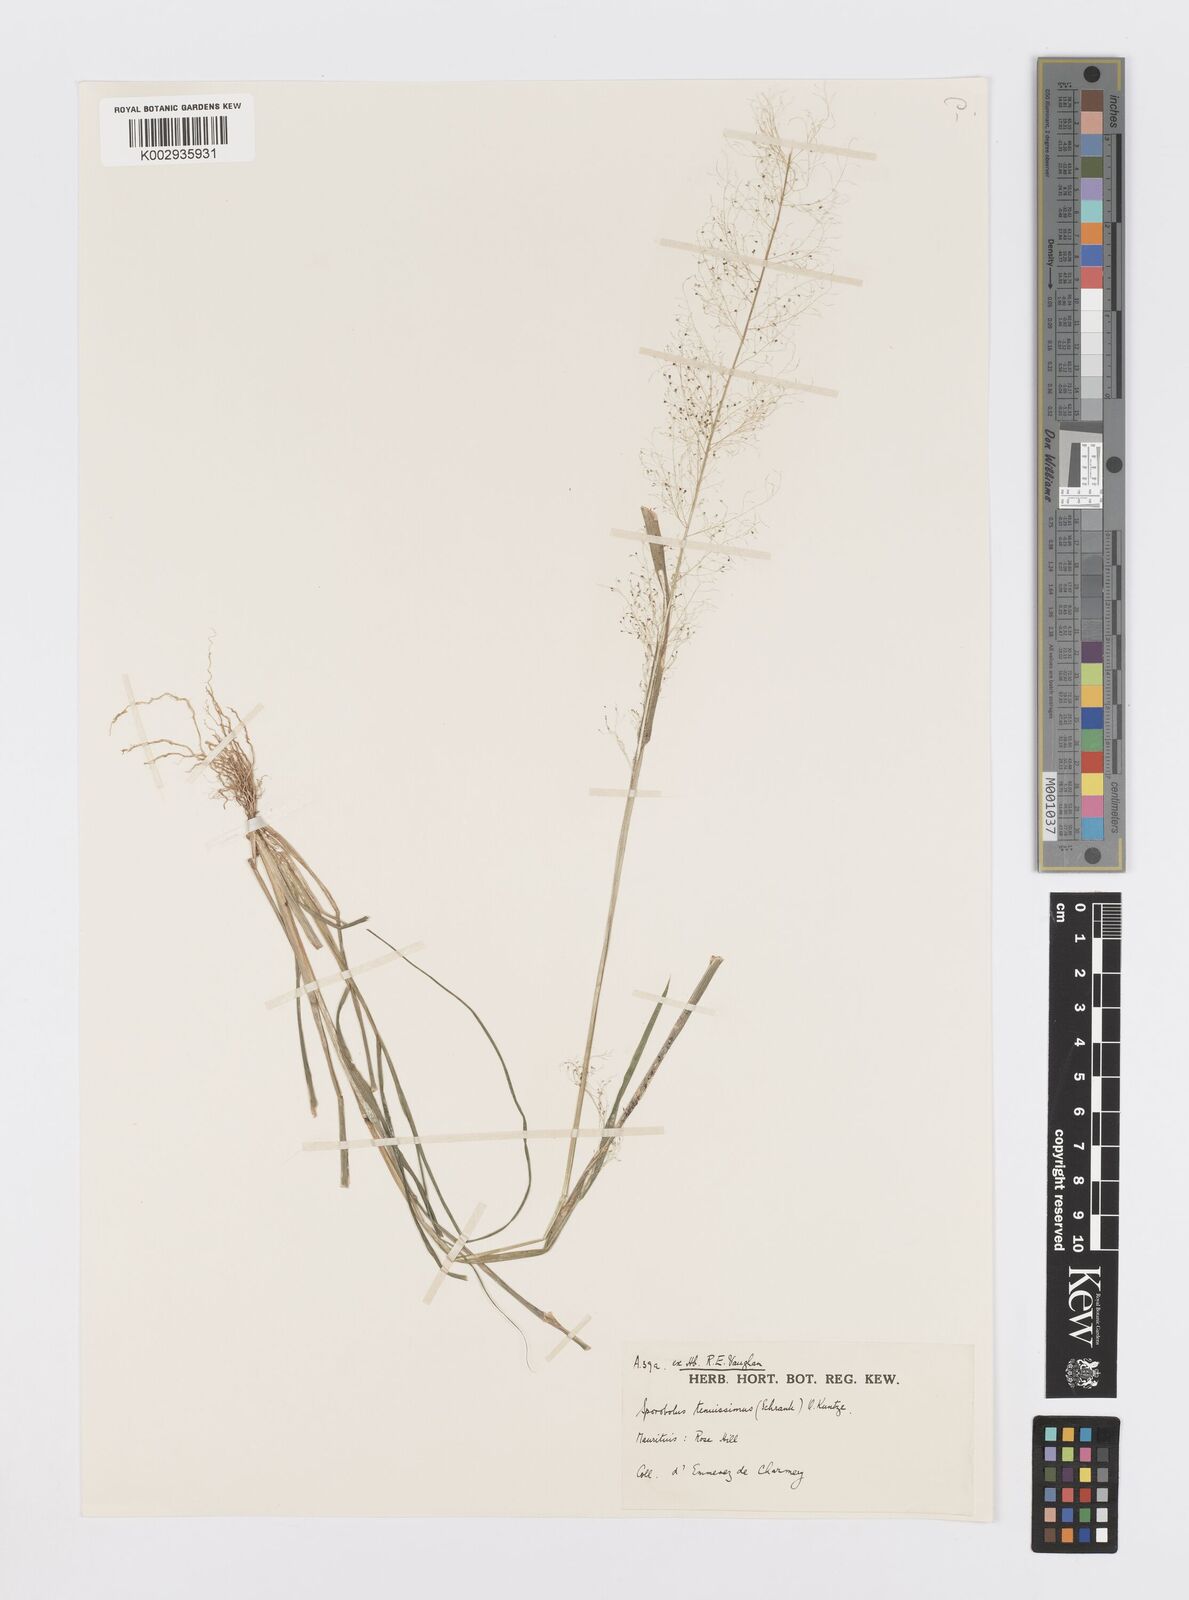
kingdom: Plantae
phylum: Tracheophyta
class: Liliopsida
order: Poales
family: Poaceae
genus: Sporobolus
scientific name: Sporobolus tenuissimus
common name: Tropical dropseed
